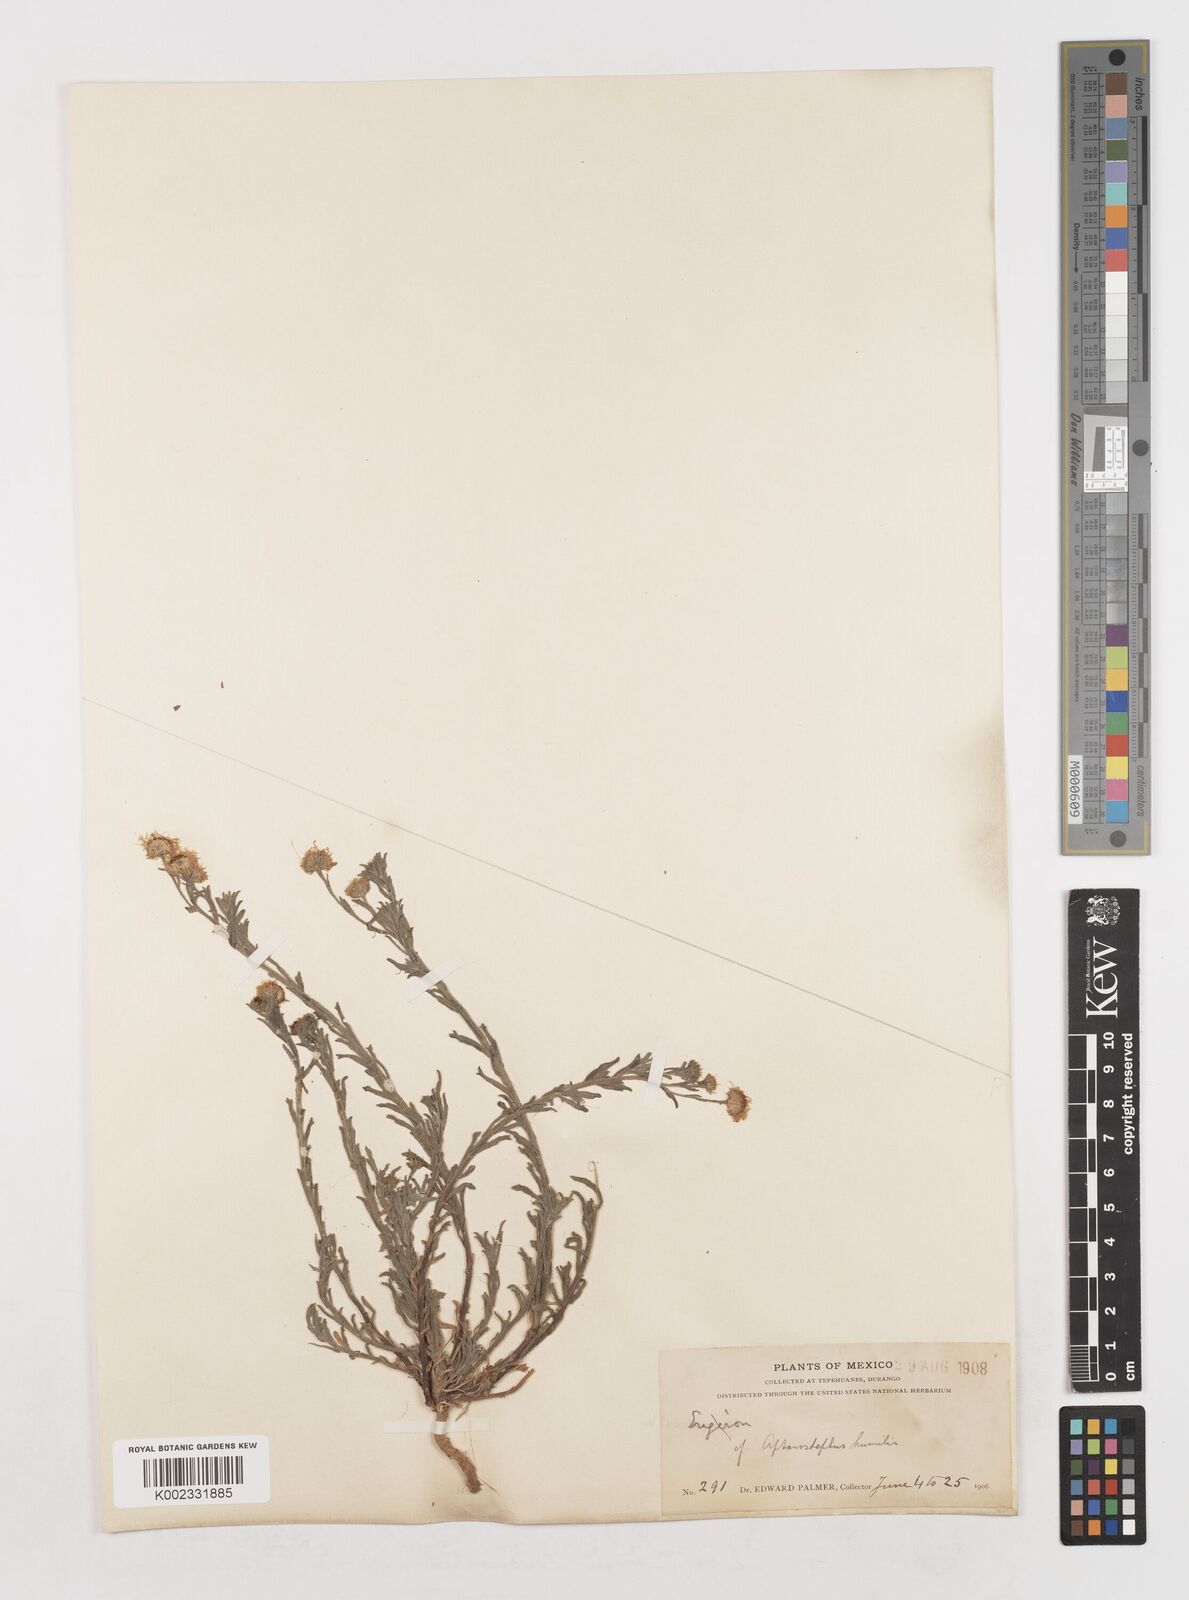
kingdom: Plantae
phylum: Tracheophyta
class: Magnoliopsida
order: Asterales
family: Asteraceae
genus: Erigeron
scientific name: Erigeron
